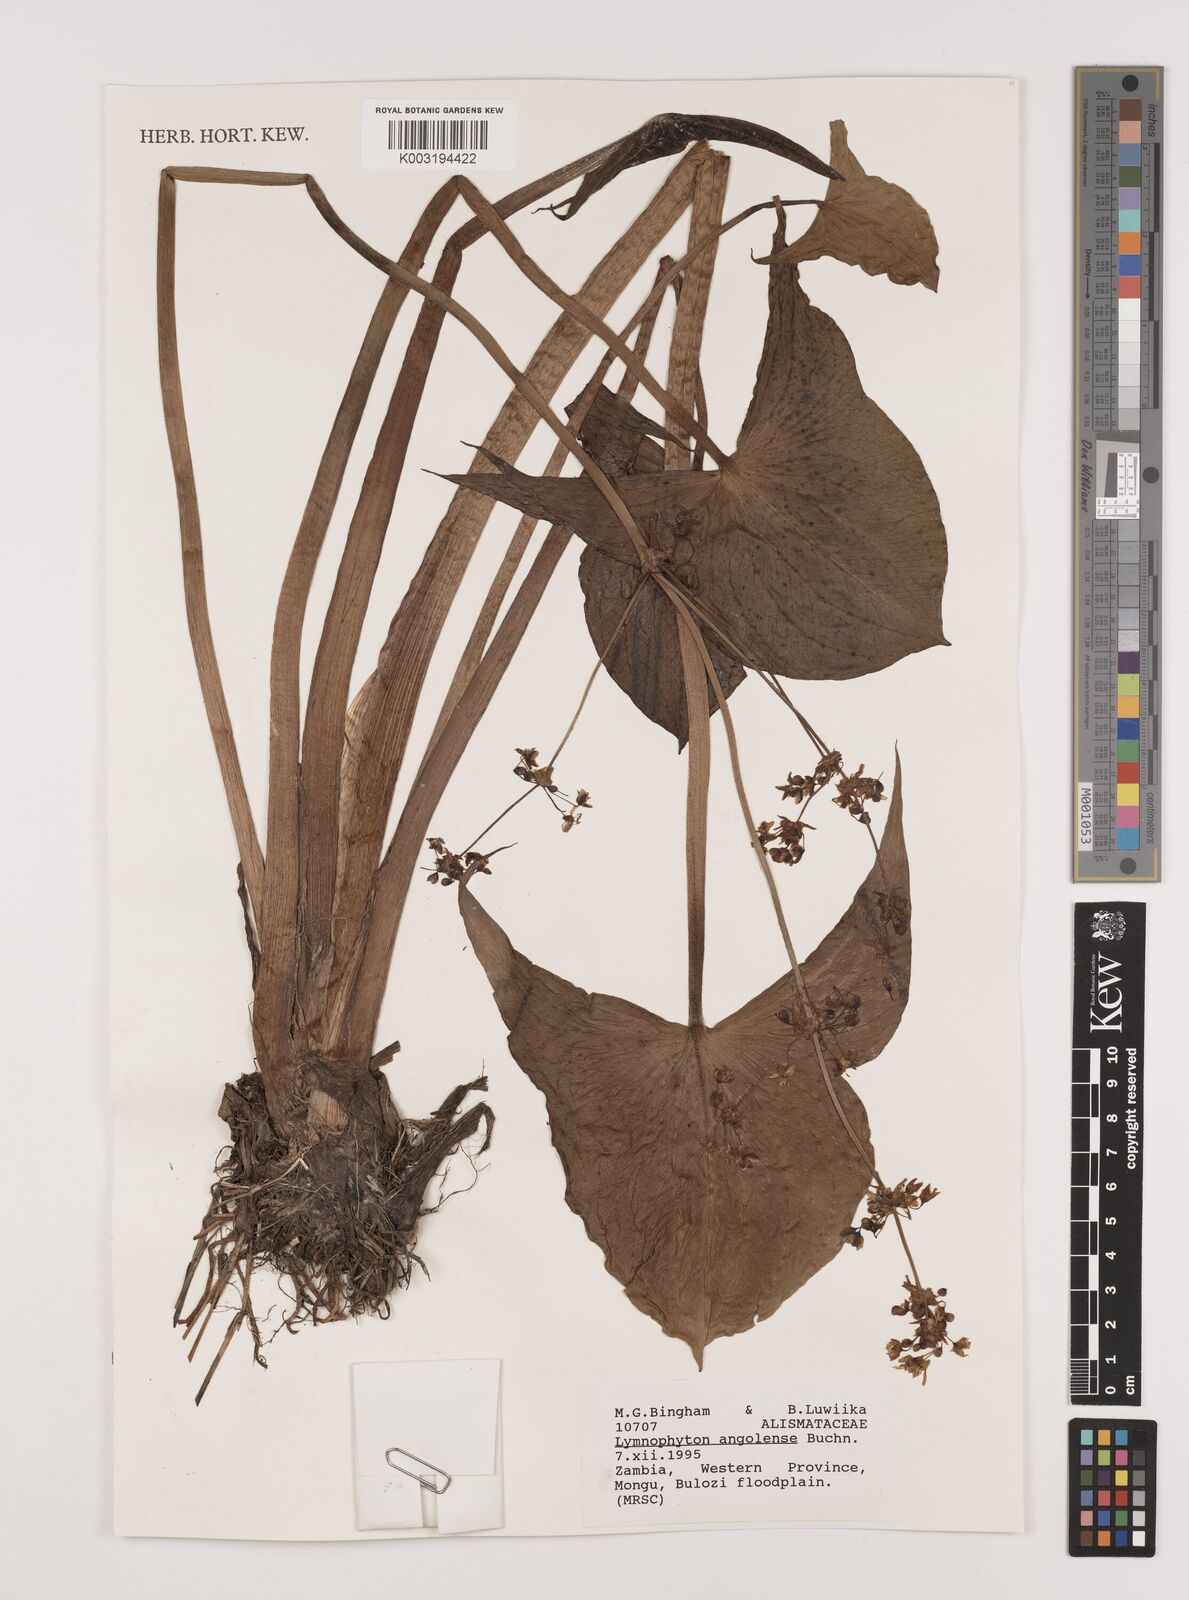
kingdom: Plantae
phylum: Tracheophyta
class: Liliopsida
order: Alismatales
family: Alismataceae
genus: Limnophyton
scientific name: Limnophyton angolense
